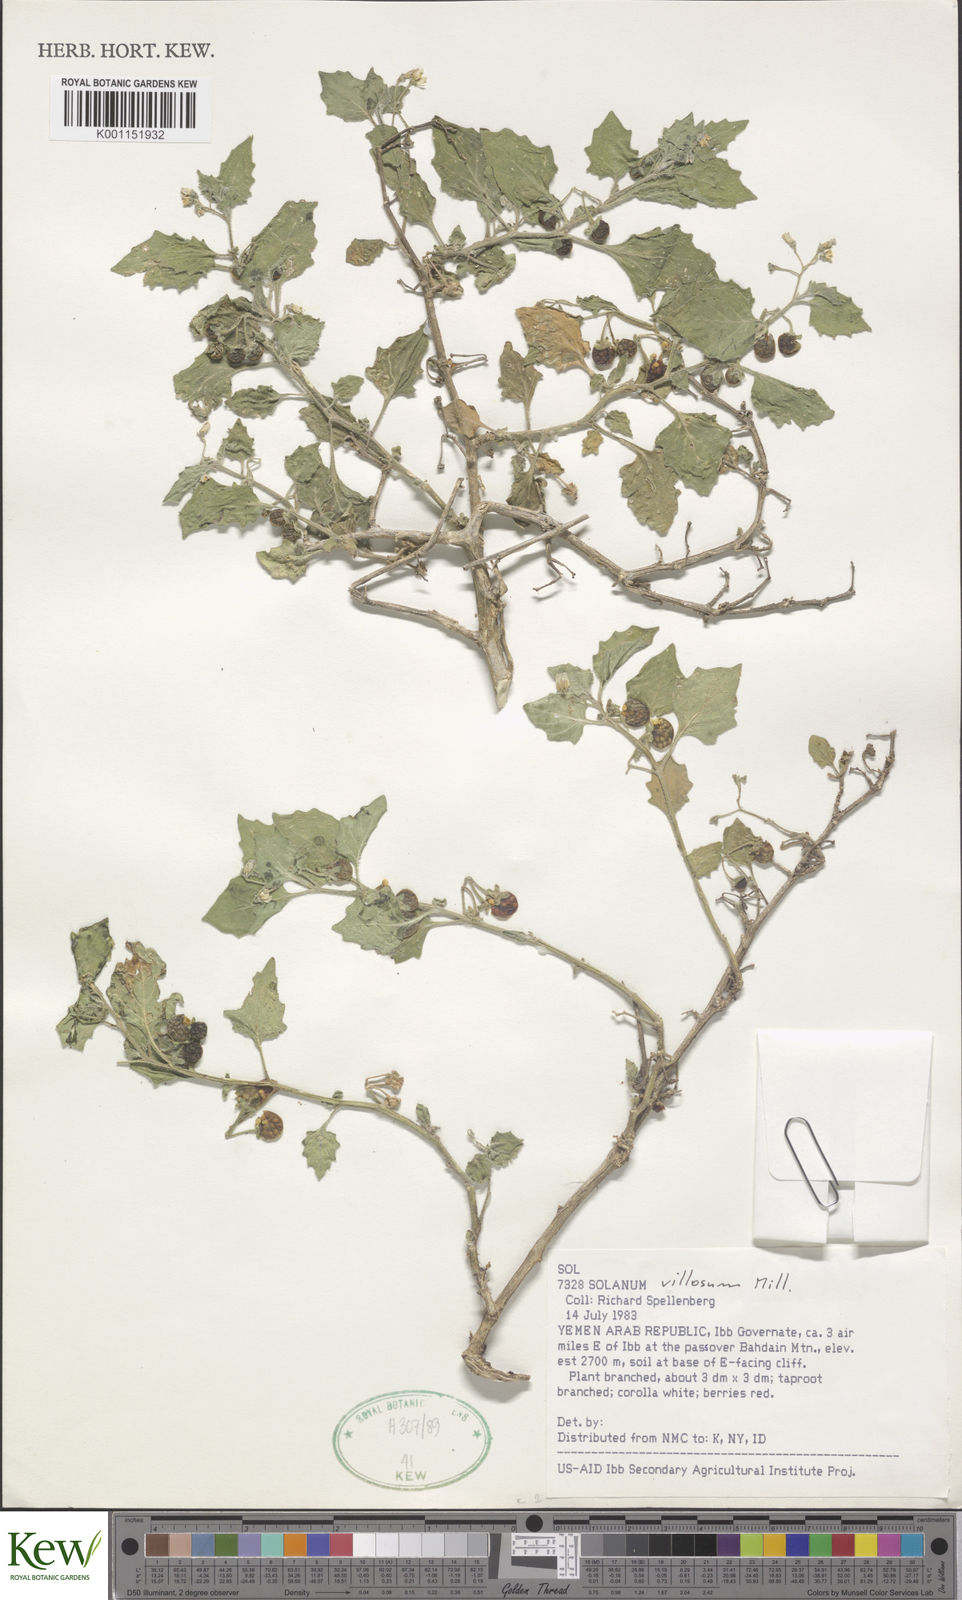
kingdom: Plantae
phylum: Tracheophyta
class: Magnoliopsida
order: Solanales
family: Solanaceae
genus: Solanum
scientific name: Solanum villosum
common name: Red nightshade
